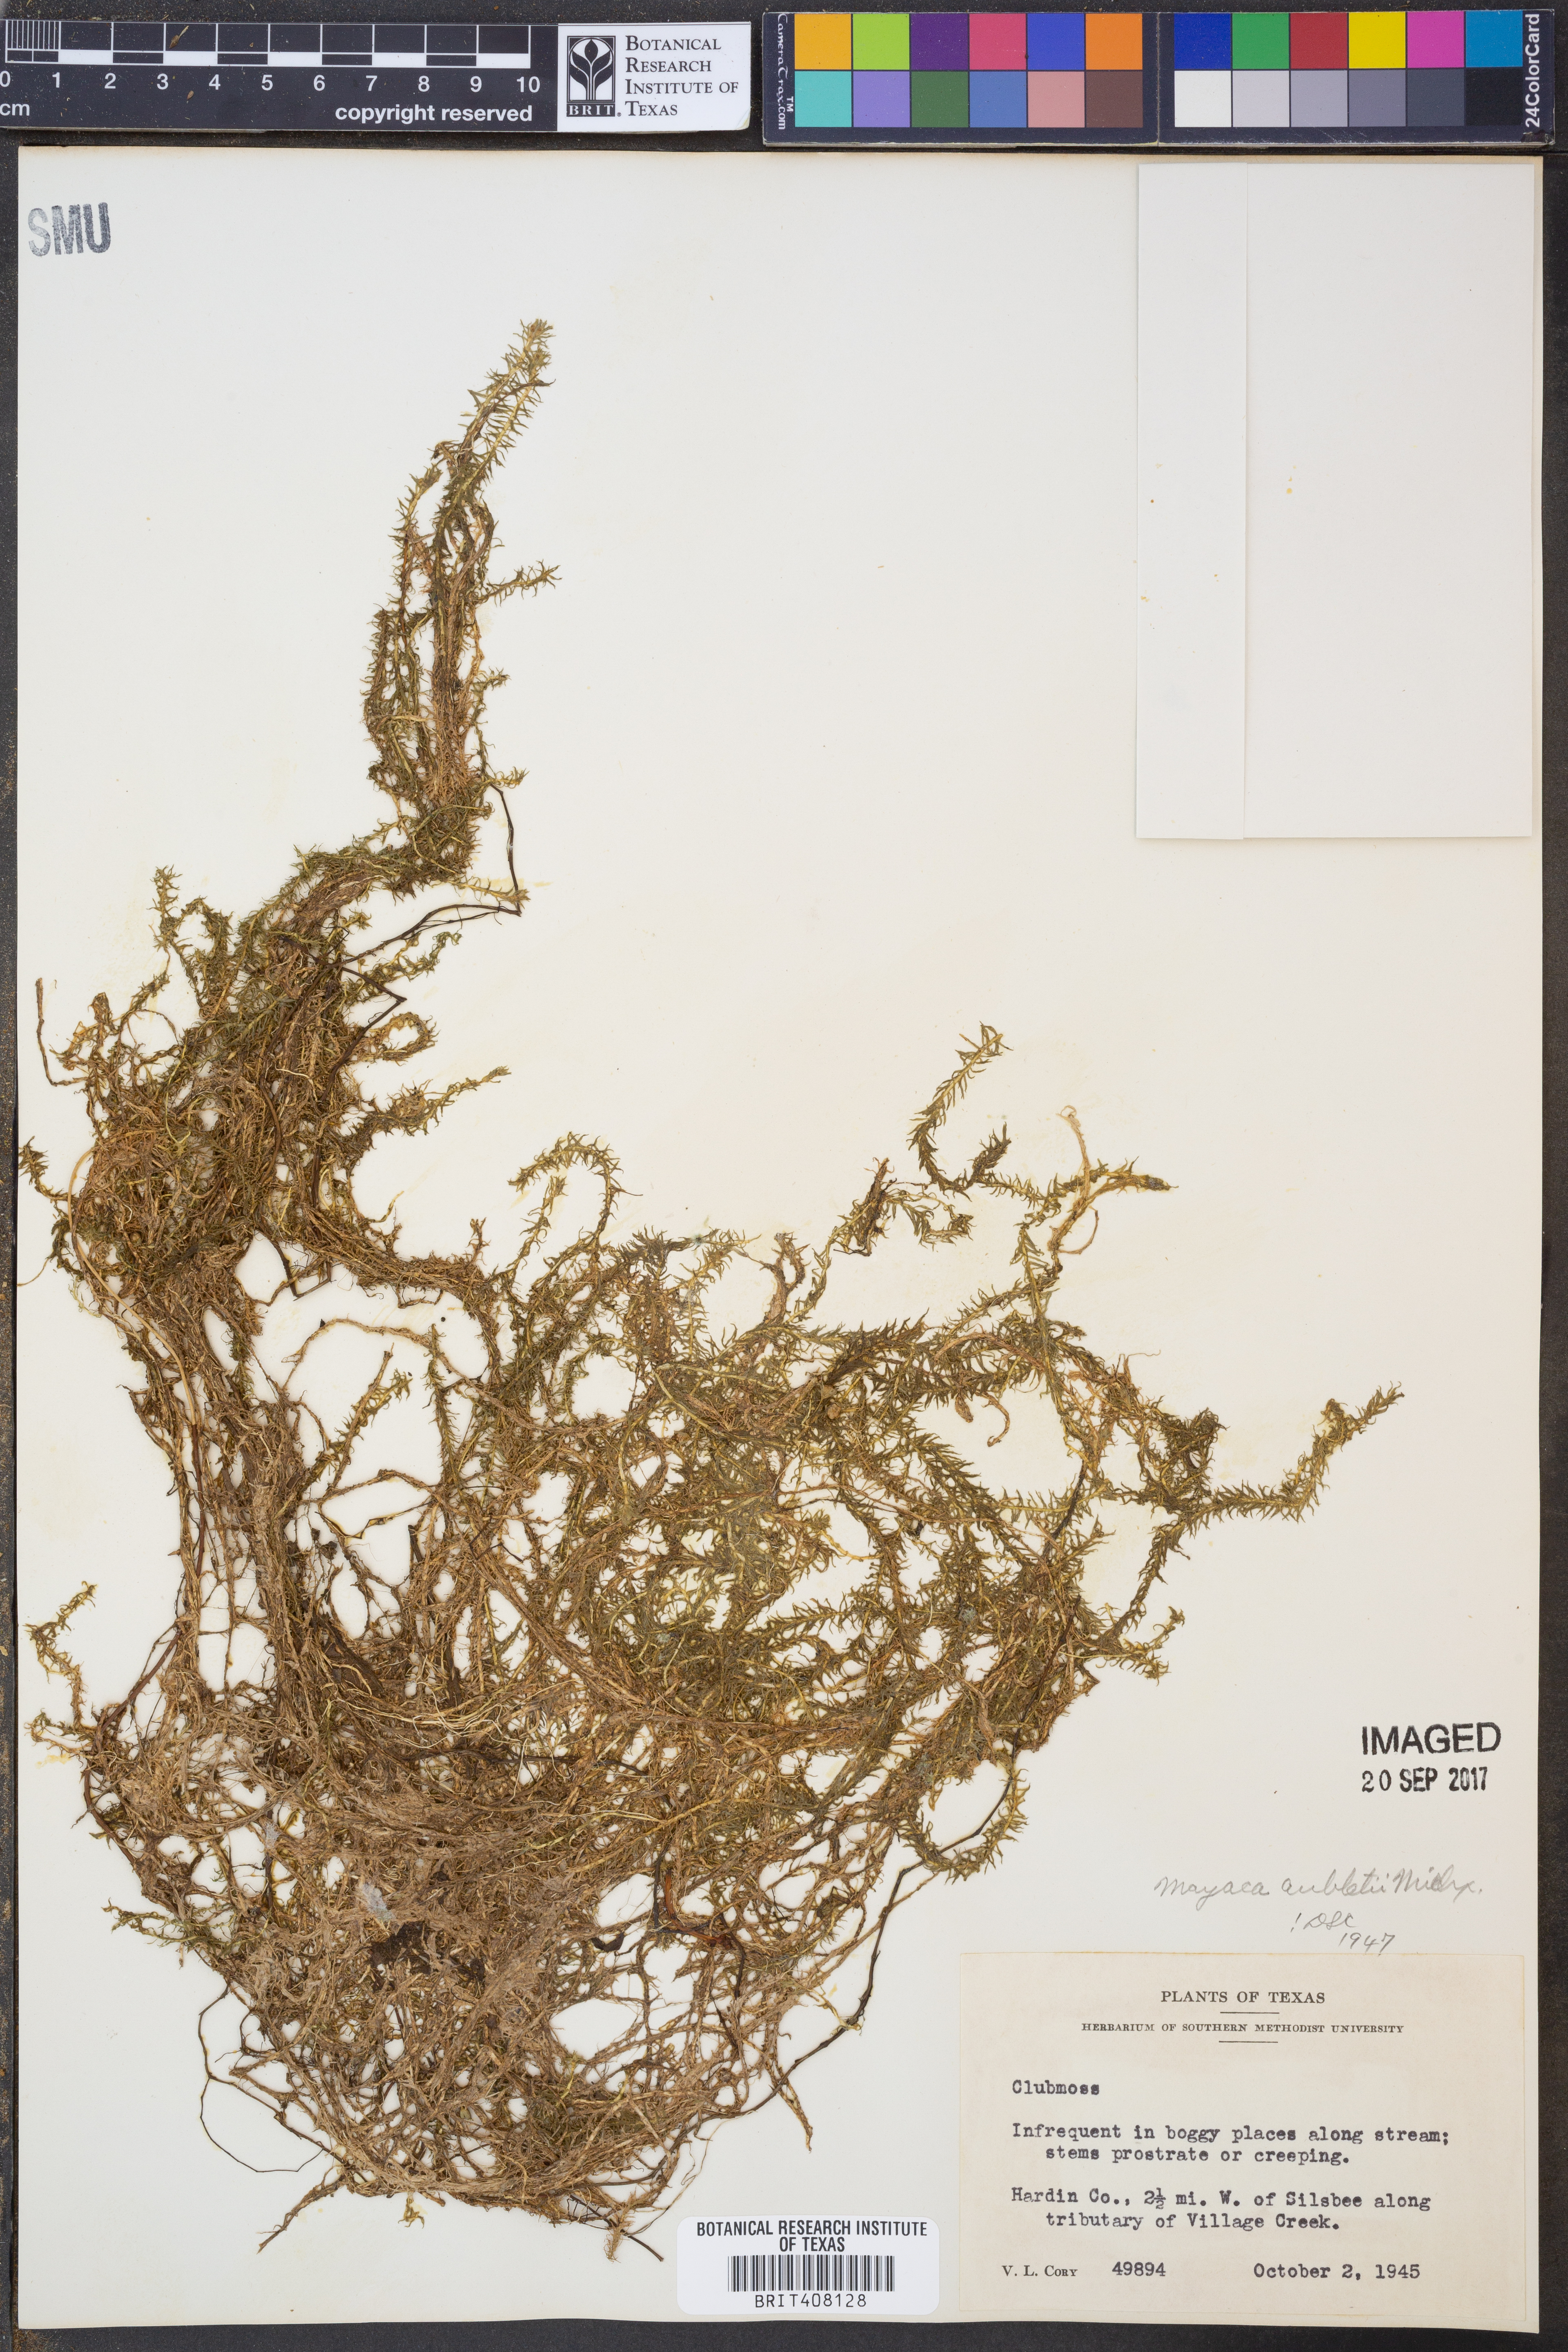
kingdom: Plantae
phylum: Tracheophyta
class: Liliopsida
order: Poales
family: Mayacaceae
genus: Mayaca
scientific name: Mayaca fluviatilis
